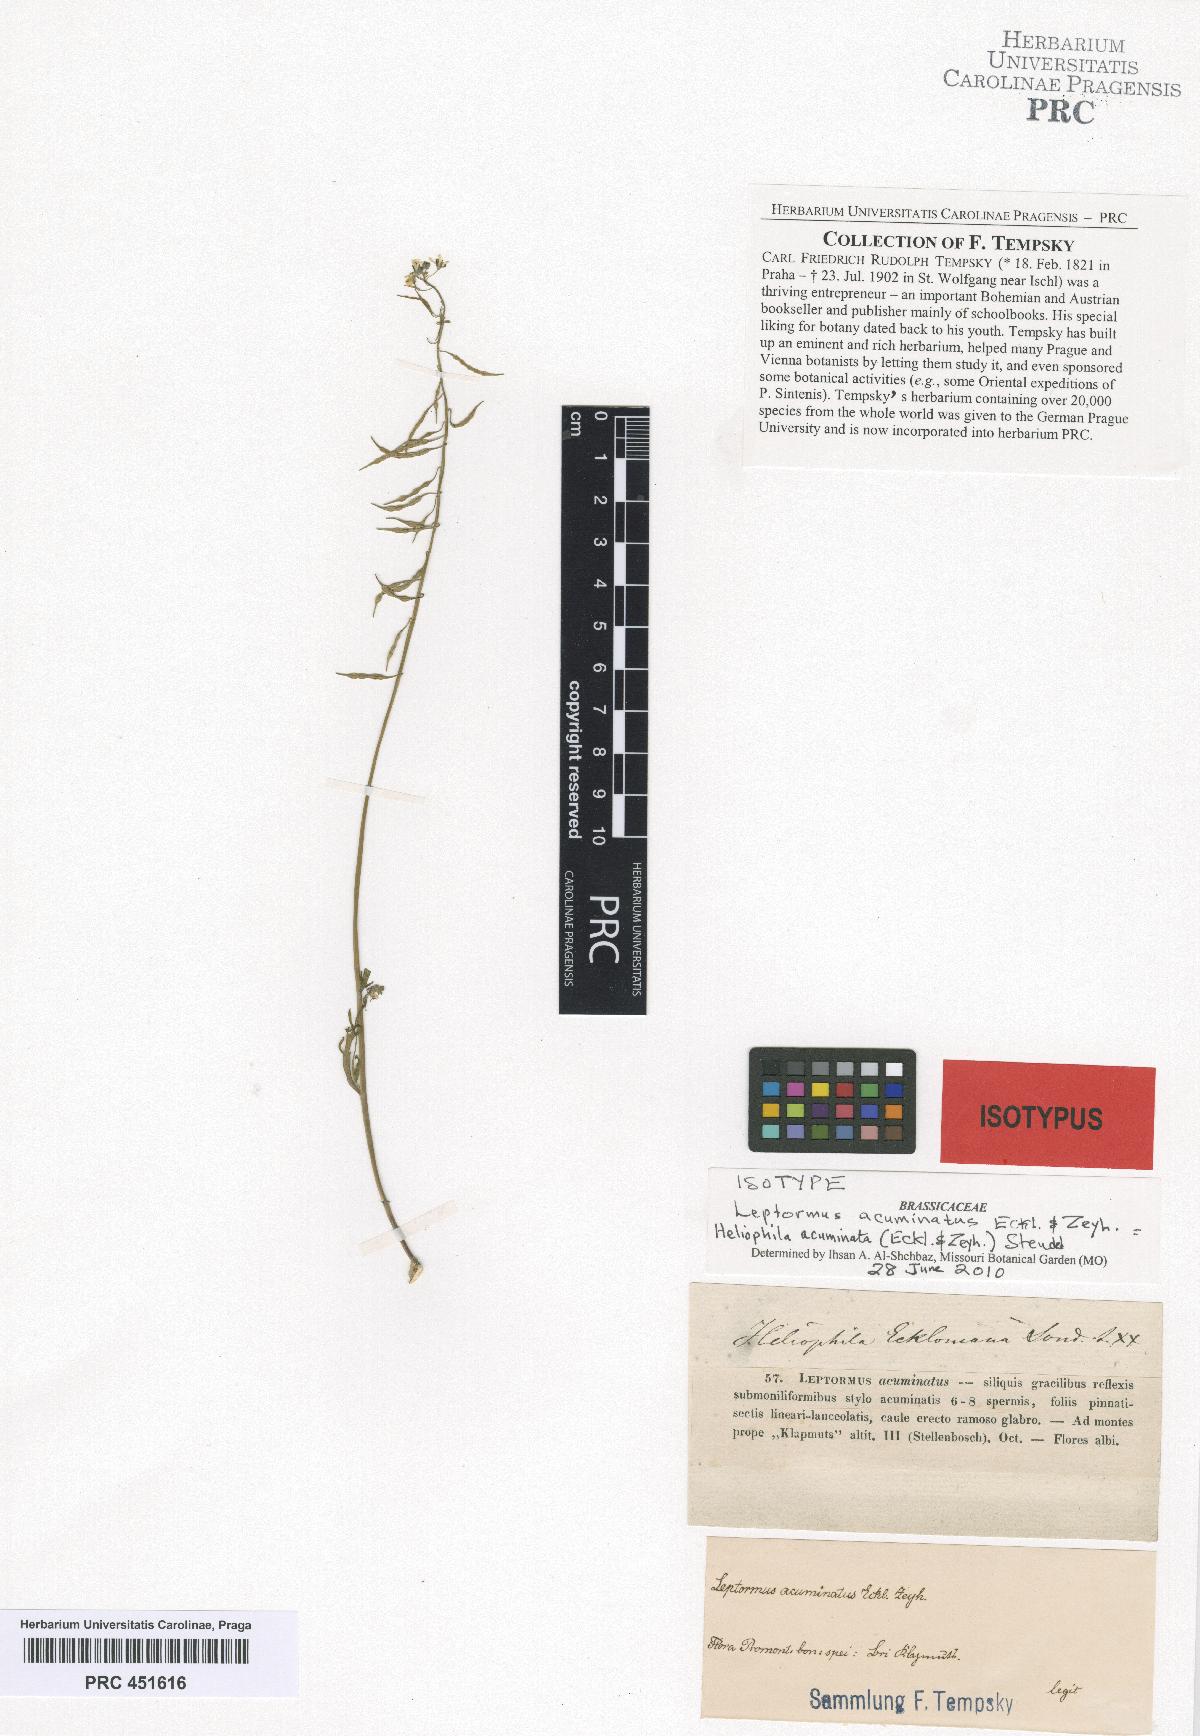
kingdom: Plantae
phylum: Tracheophyta
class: Magnoliopsida
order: Brassicales
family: Brassicaceae
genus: Heliophila
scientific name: Heliophila acuminata
